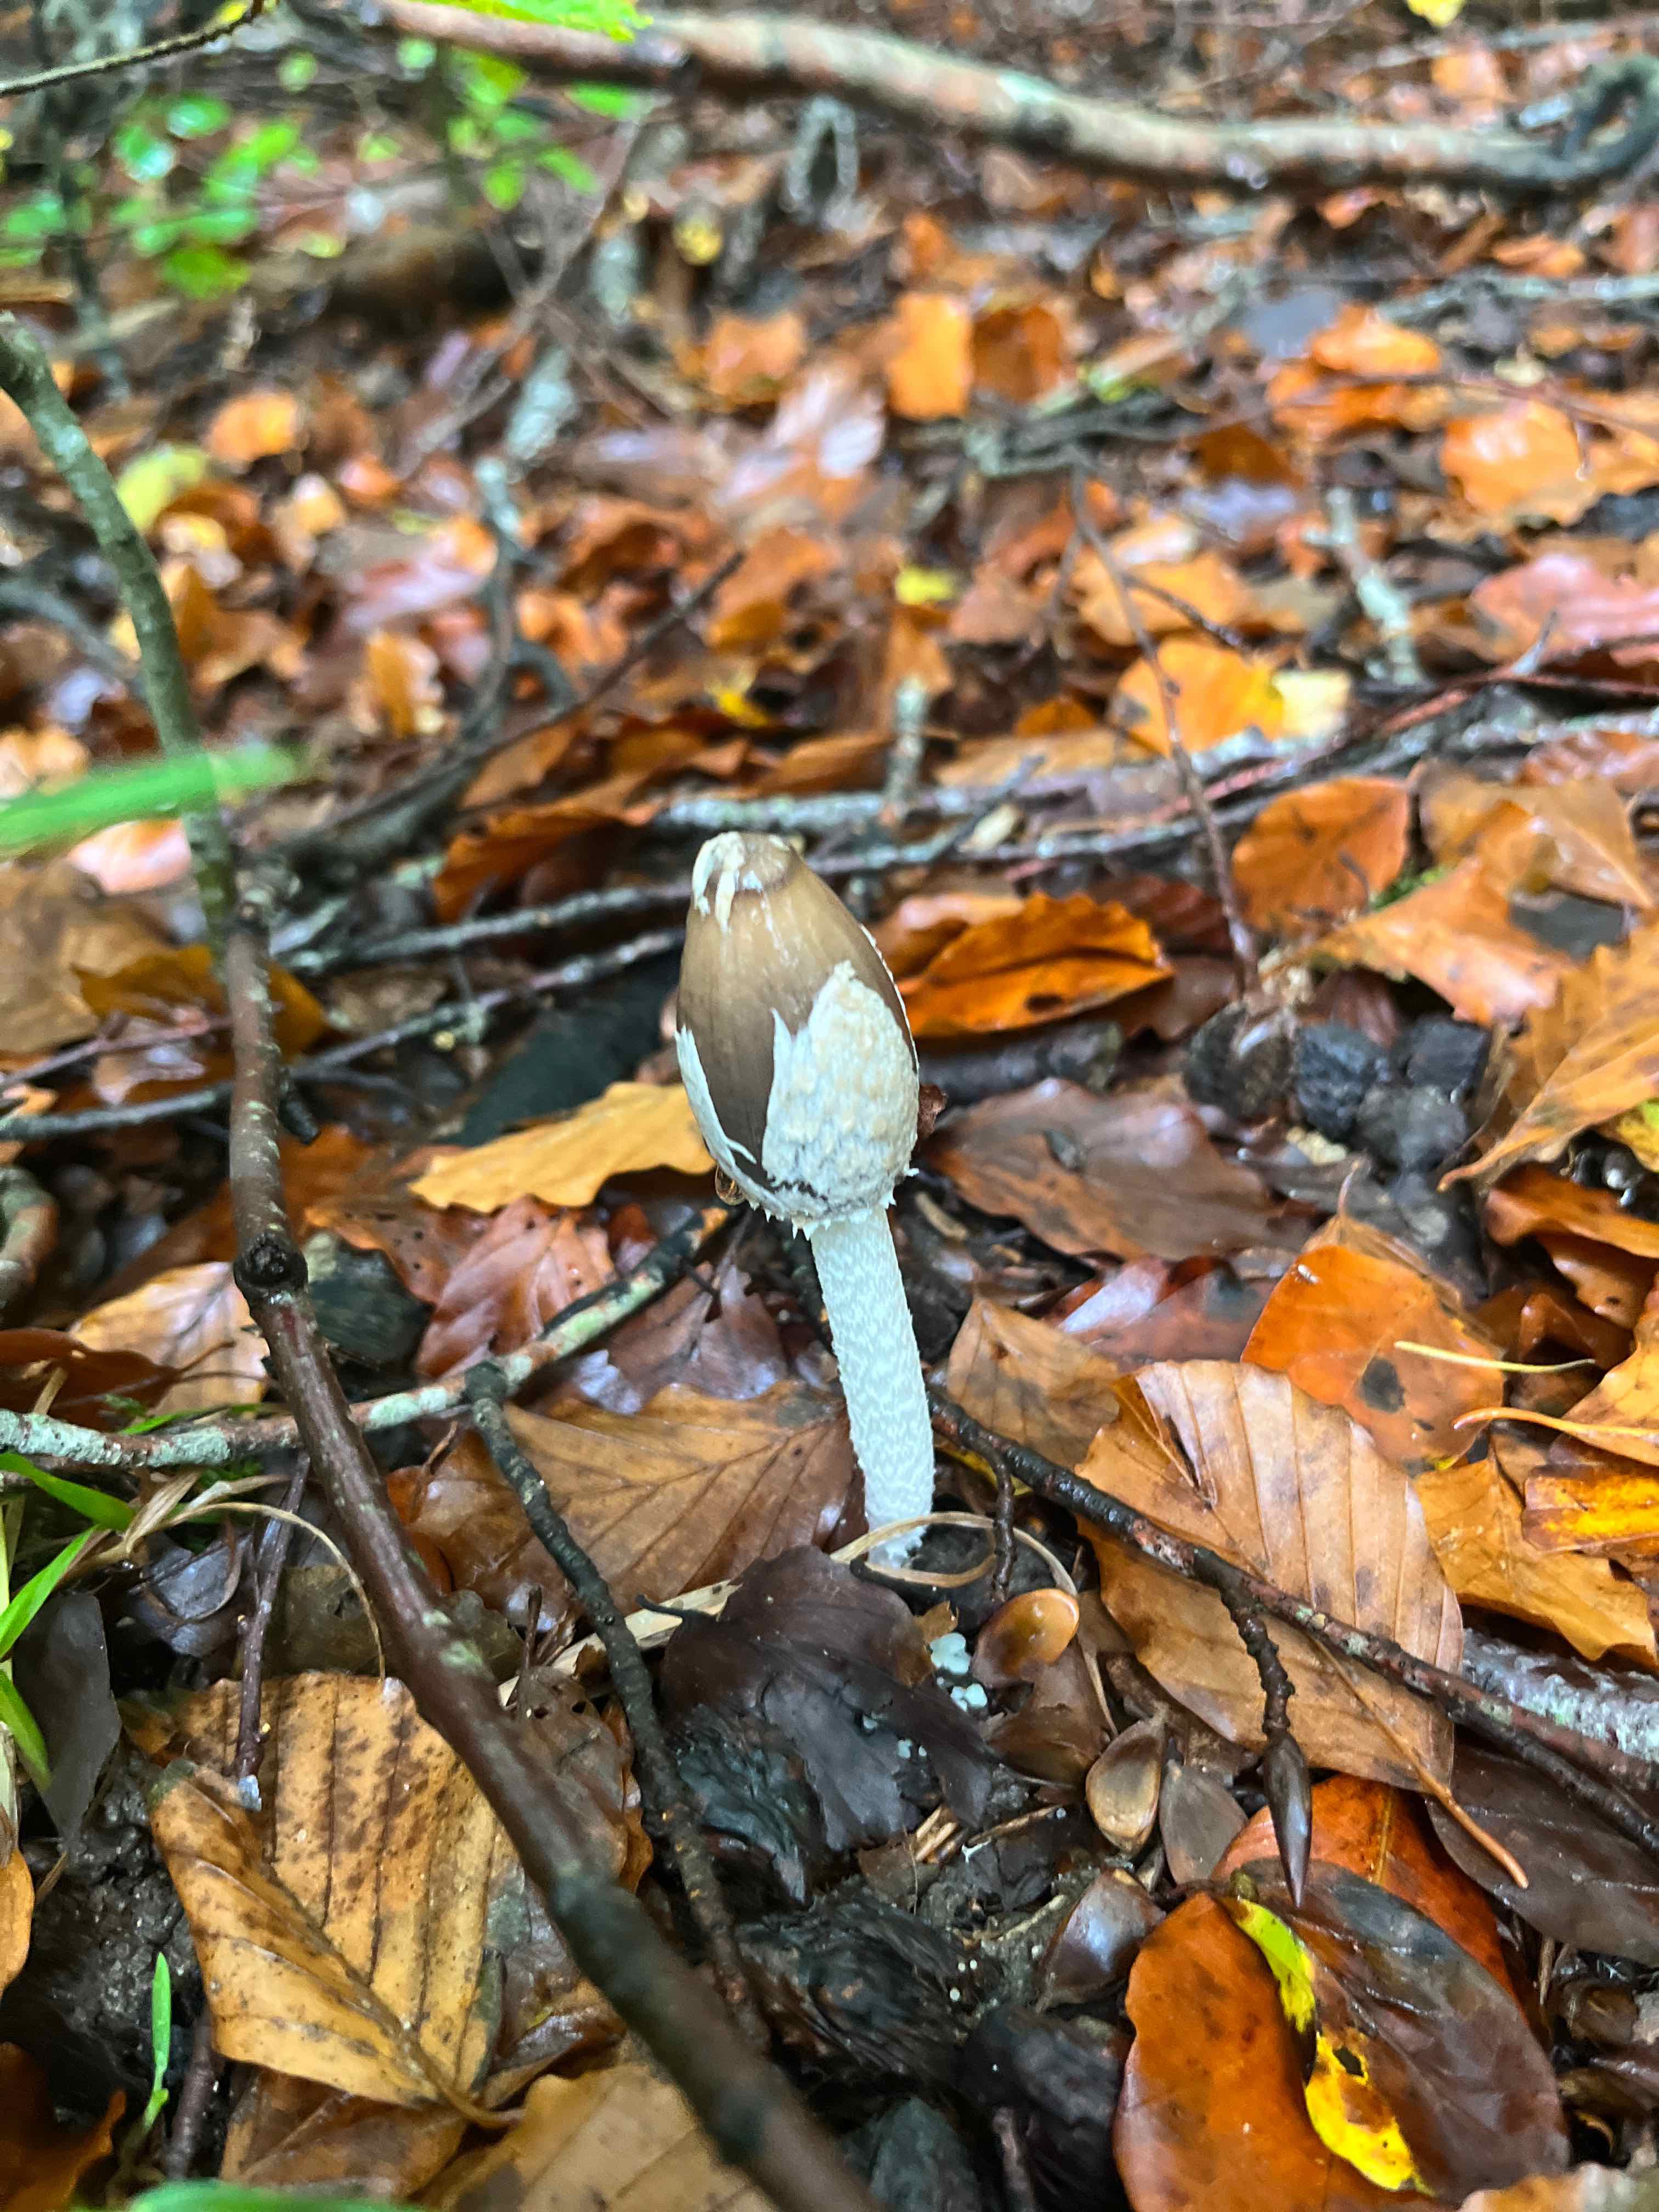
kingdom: Fungi
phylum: Basidiomycota
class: Agaricomycetes
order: Agaricales
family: Psathyrellaceae
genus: Coprinopsis
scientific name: Coprinopsis picacea
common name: skade-blækhat
